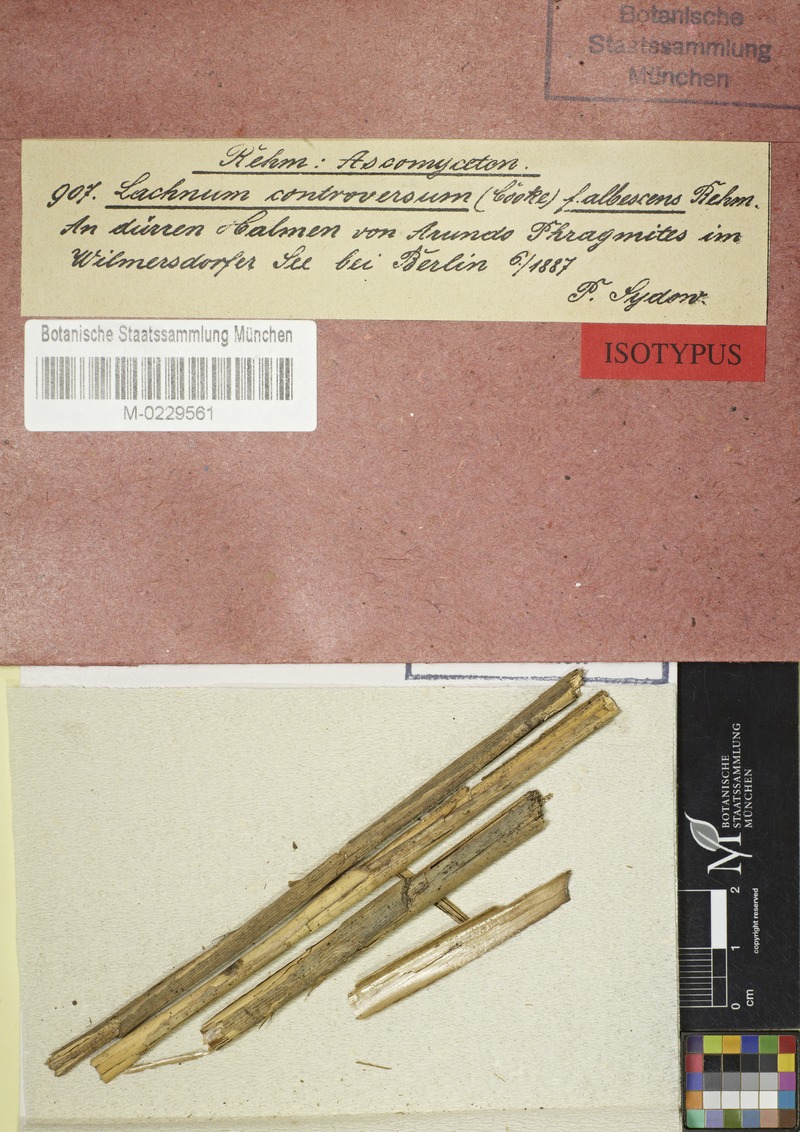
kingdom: Fungi
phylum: Ascomycota
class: Leotiomycetes
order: Helotiales
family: Lachnaceae
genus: Lachnum
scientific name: Lachnum controversum
